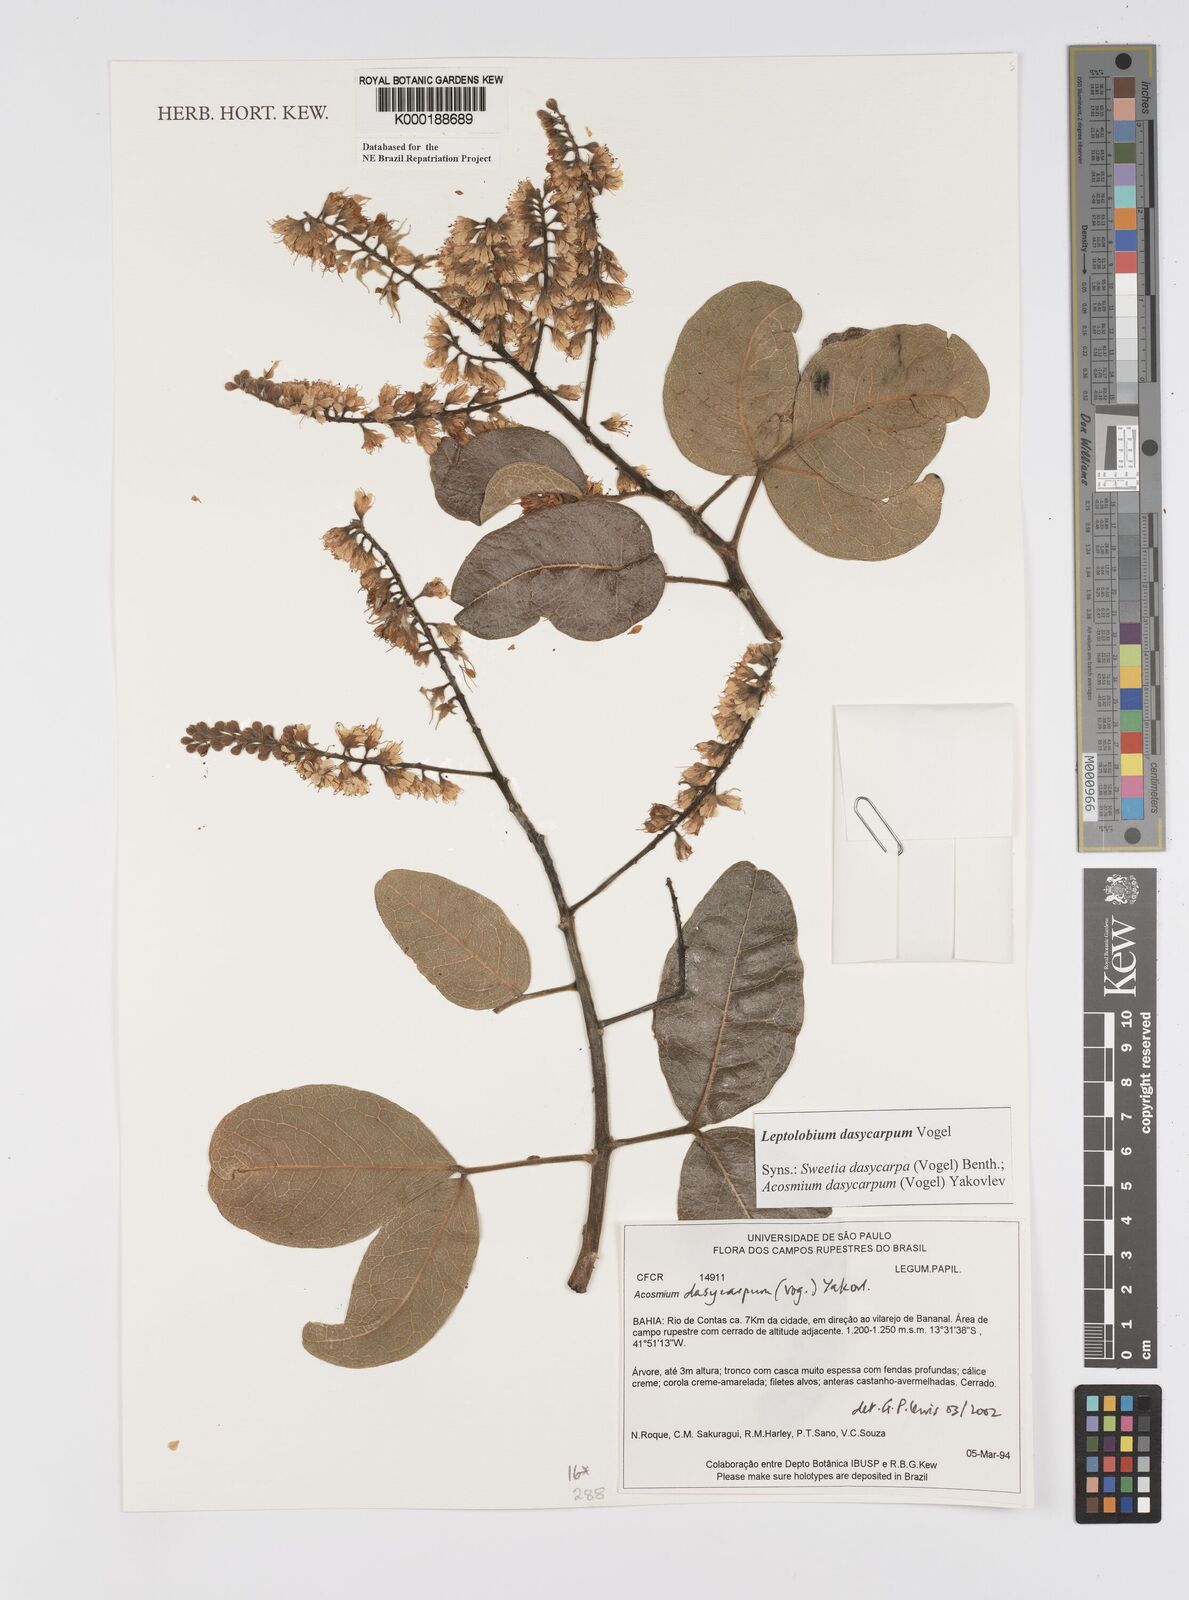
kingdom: Plantae
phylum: Tracheophyta
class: Magnoliopsida
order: Fabales
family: Fabaceae
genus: Leptolobium
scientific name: Leptolobium dasycarpum
